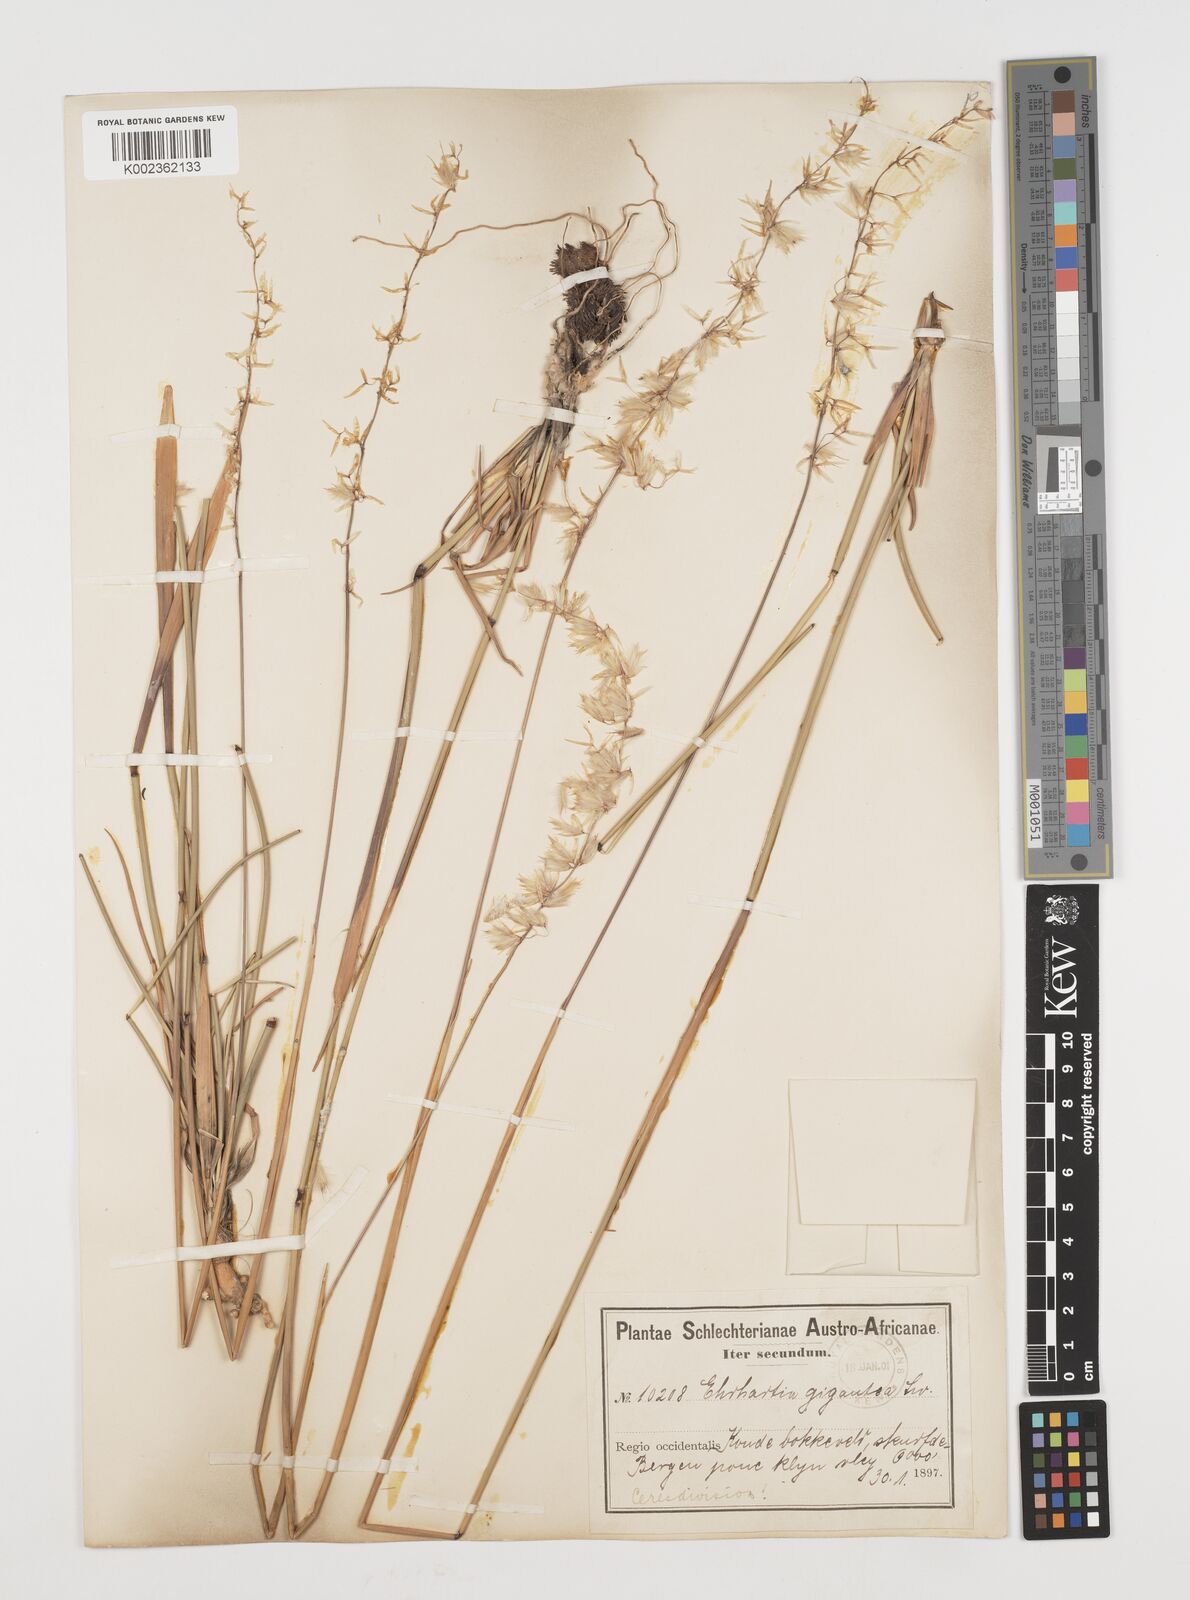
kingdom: Plantae
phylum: Tracheophyta
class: Liliopsida
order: Poales
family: Poaceae
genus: Ehrharta
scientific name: Ehrharta thunbergii
